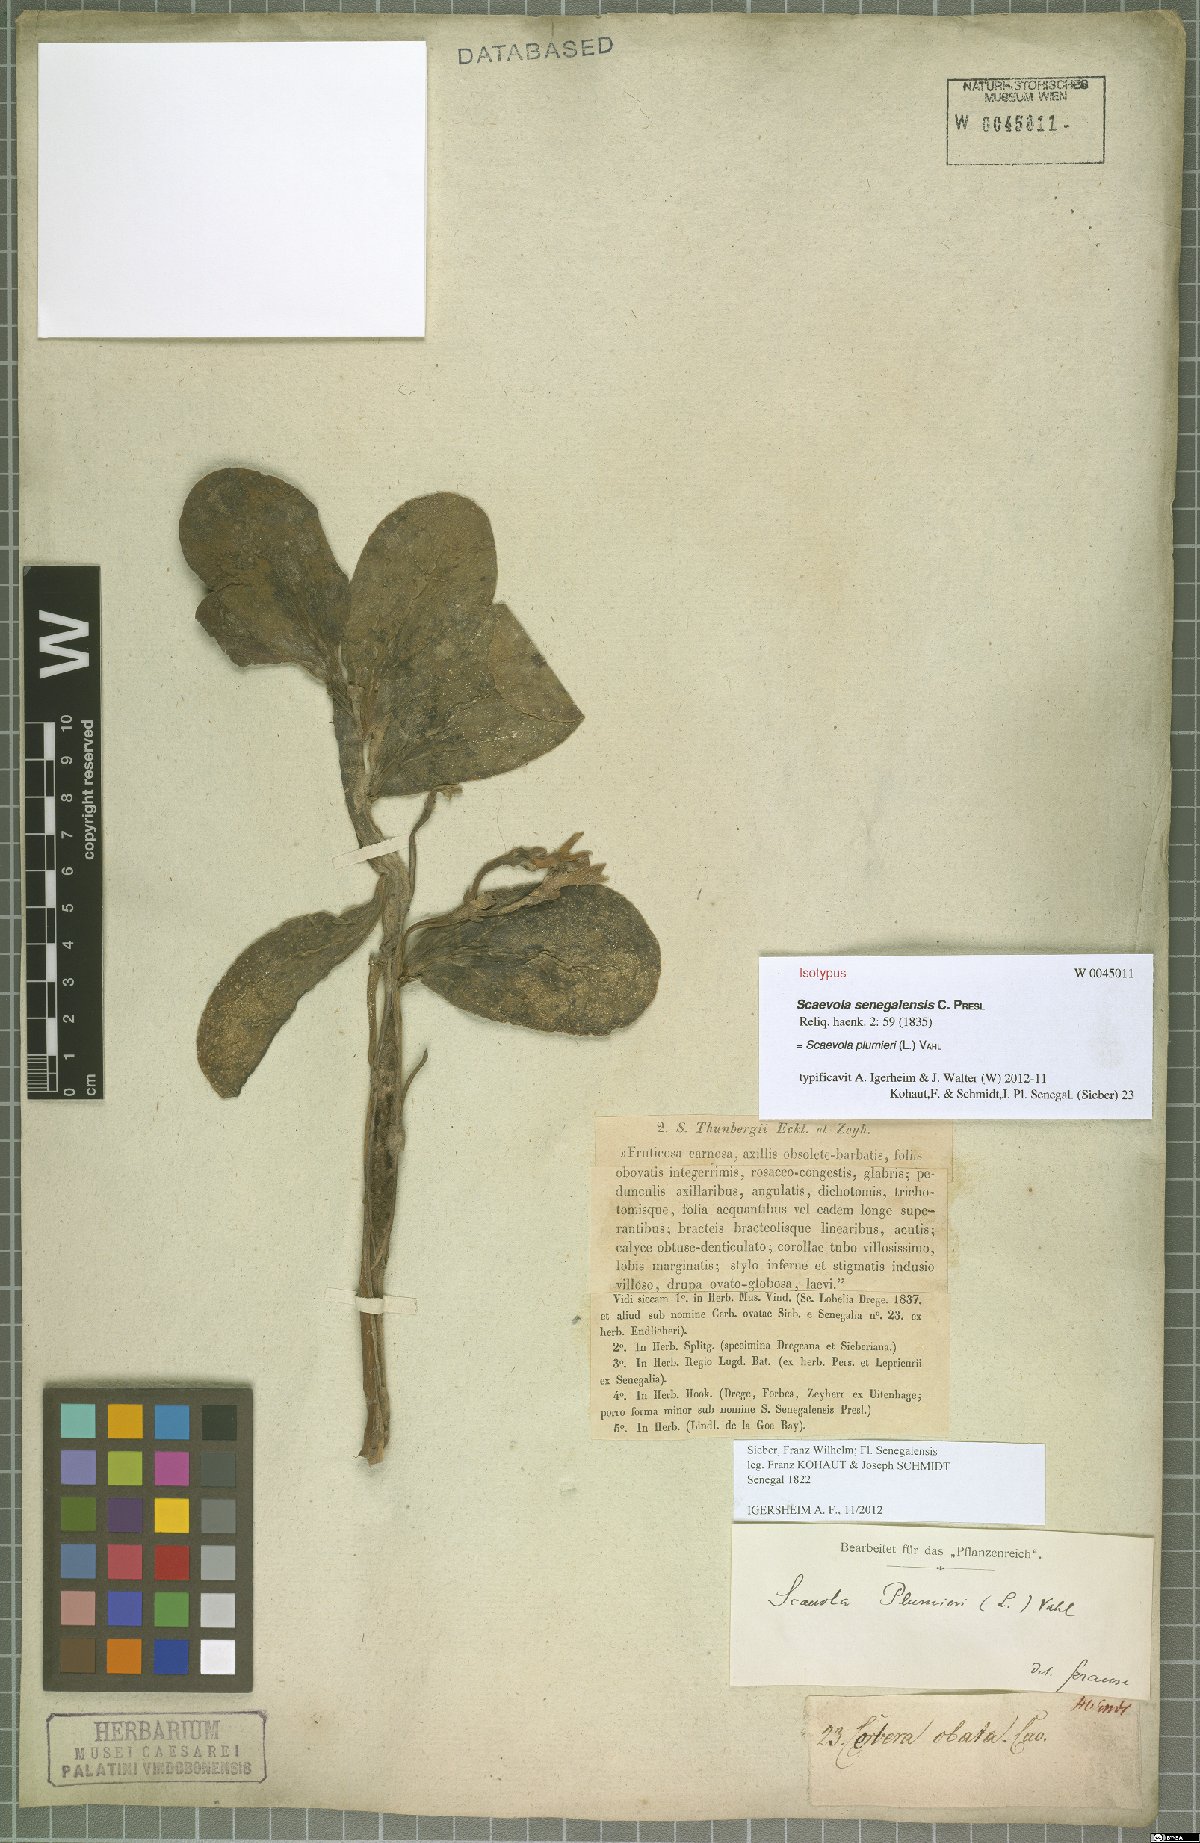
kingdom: Plantae
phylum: Tracheophyta
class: Magnoliopsida
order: Asterales
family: Goodeniaceae
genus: Scaevola
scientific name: Scaevola plumieri
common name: Gull feed
